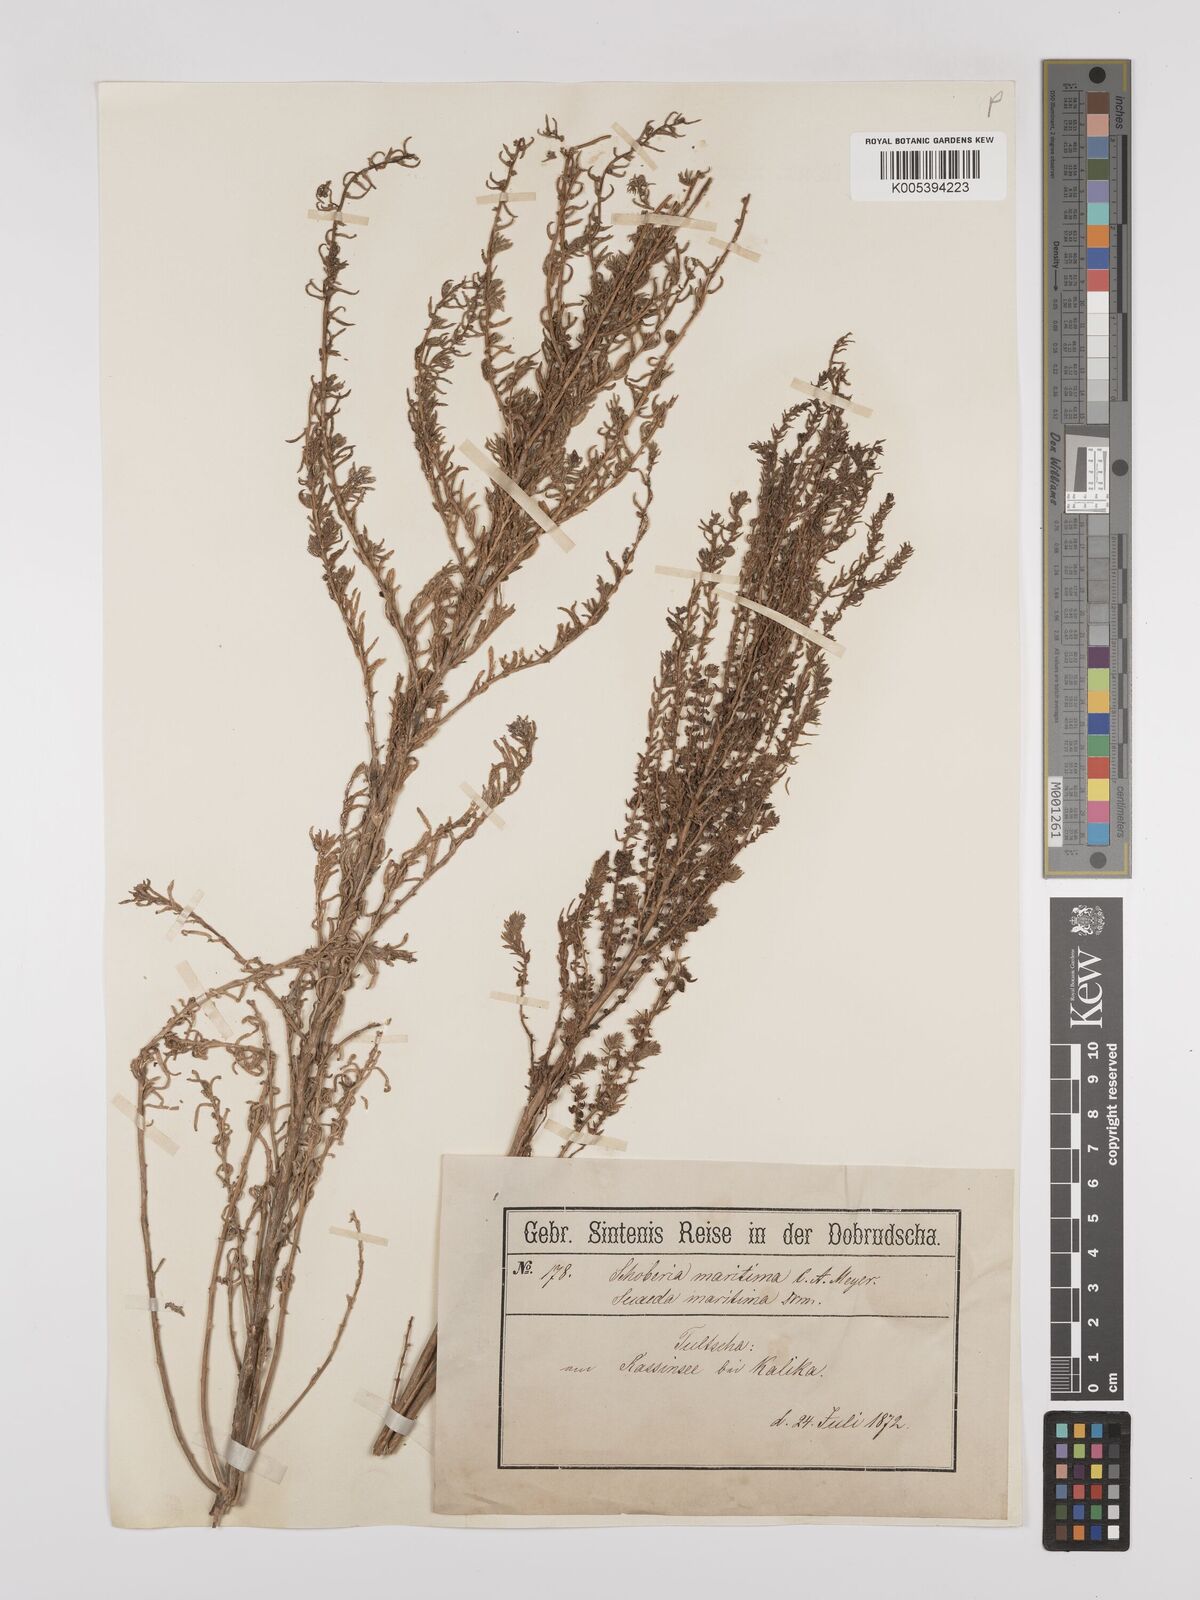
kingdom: Plantae
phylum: Tracheophyta
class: Magnoliopsida
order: Caryophyllales
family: Amaranthaceae
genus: Suaeda
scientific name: Suaeda
